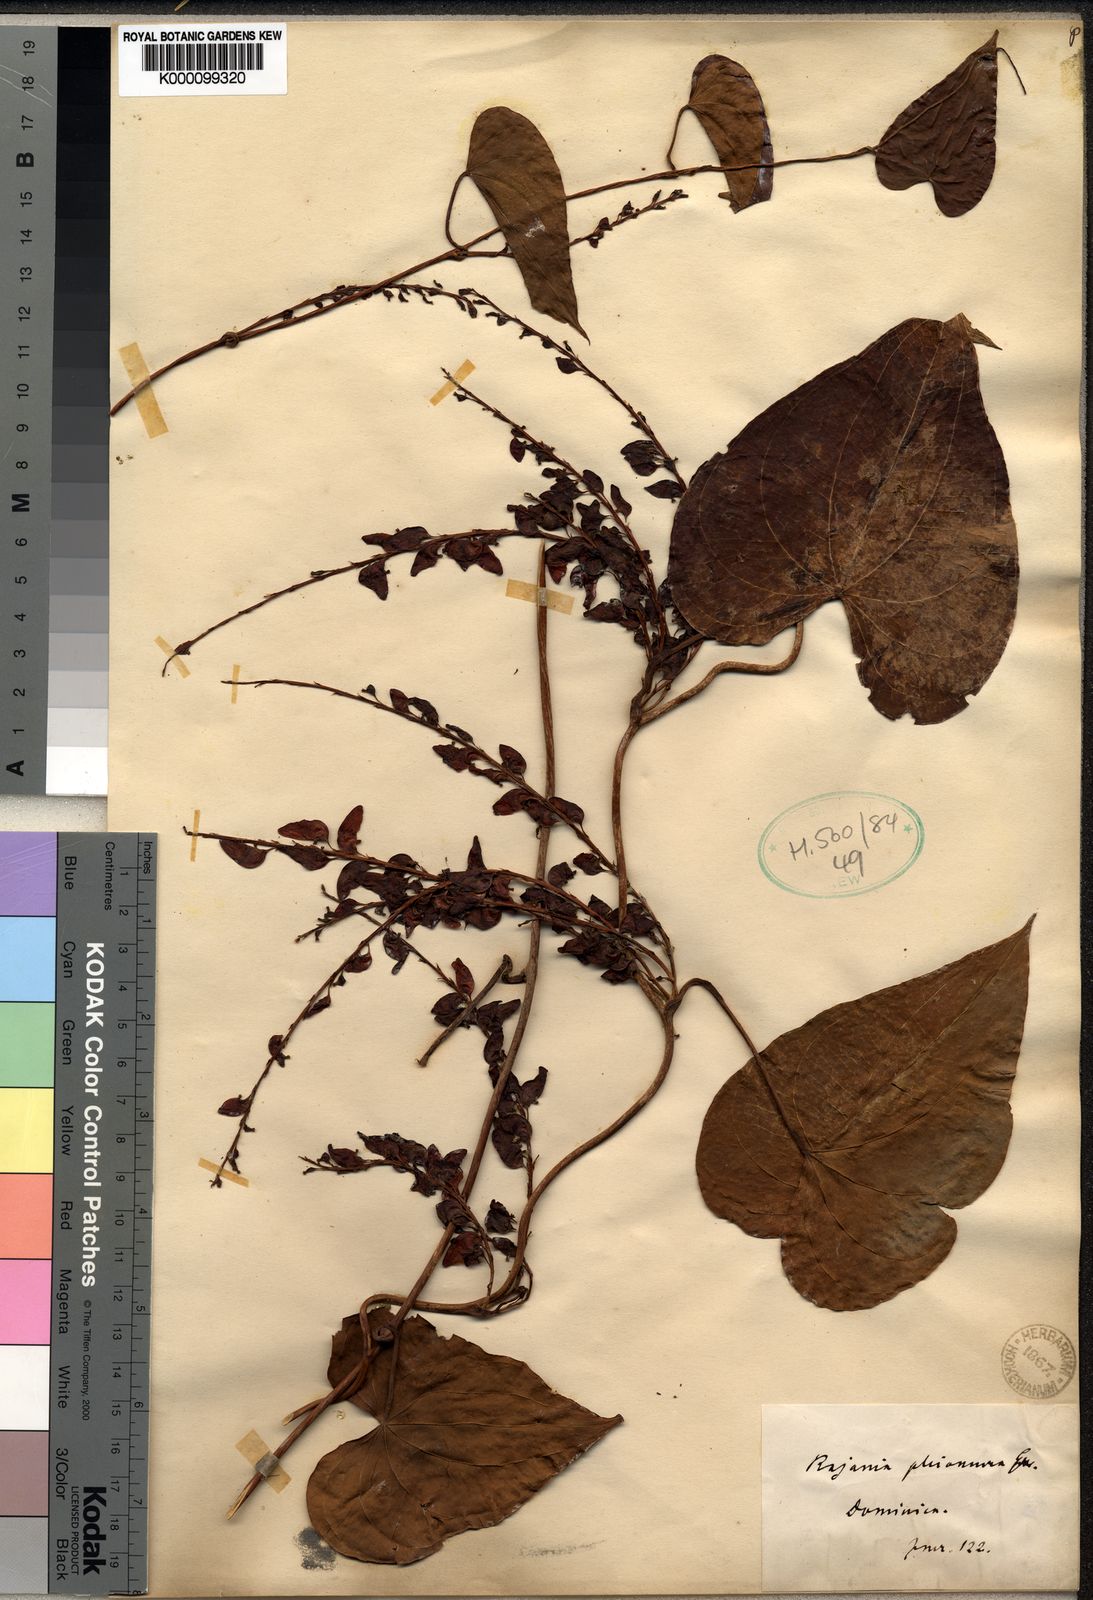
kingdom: Plantae
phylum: Tracheophyta
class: Liliopsida
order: Dioscoreales
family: Dioscoreaceae
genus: Dioscorea
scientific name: Dioscorea cordata
